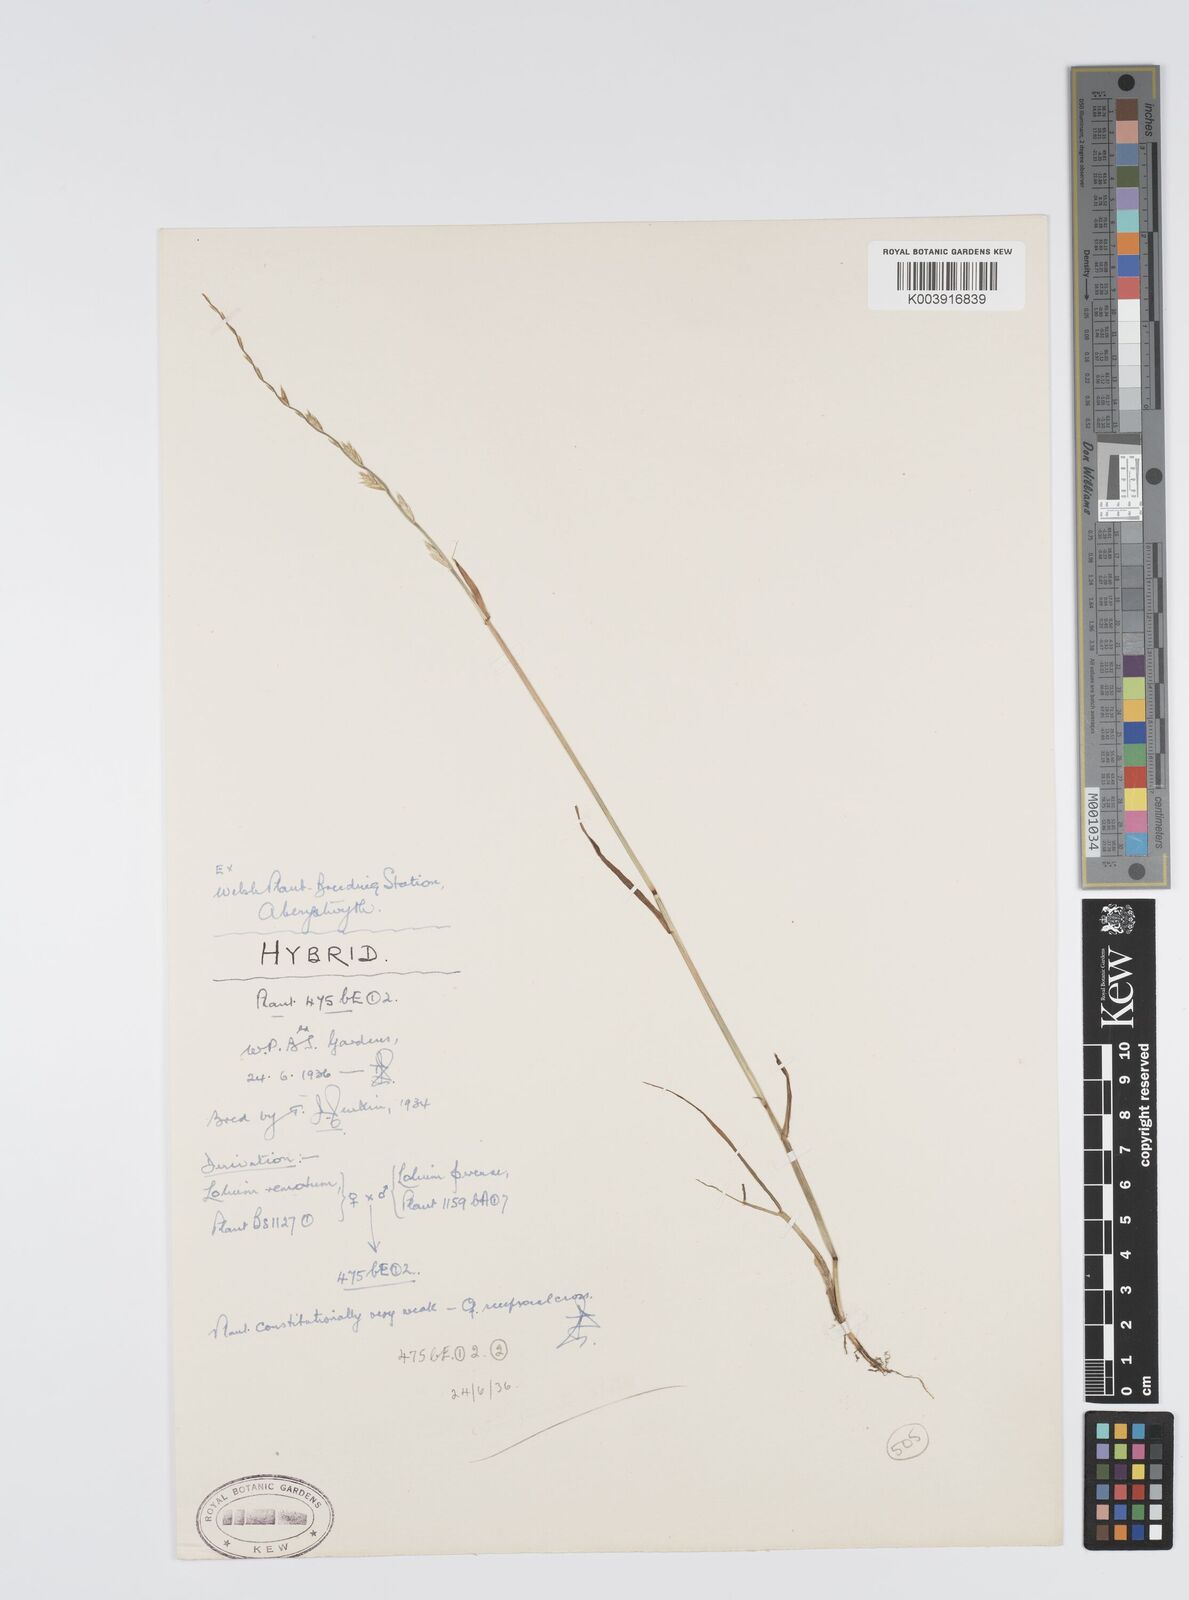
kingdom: Plantae
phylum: Tracheophyta
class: Liliopsida
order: Poales
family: Poaceae
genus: Lolium
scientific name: Lolium perenne
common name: Perennial ryegrass
